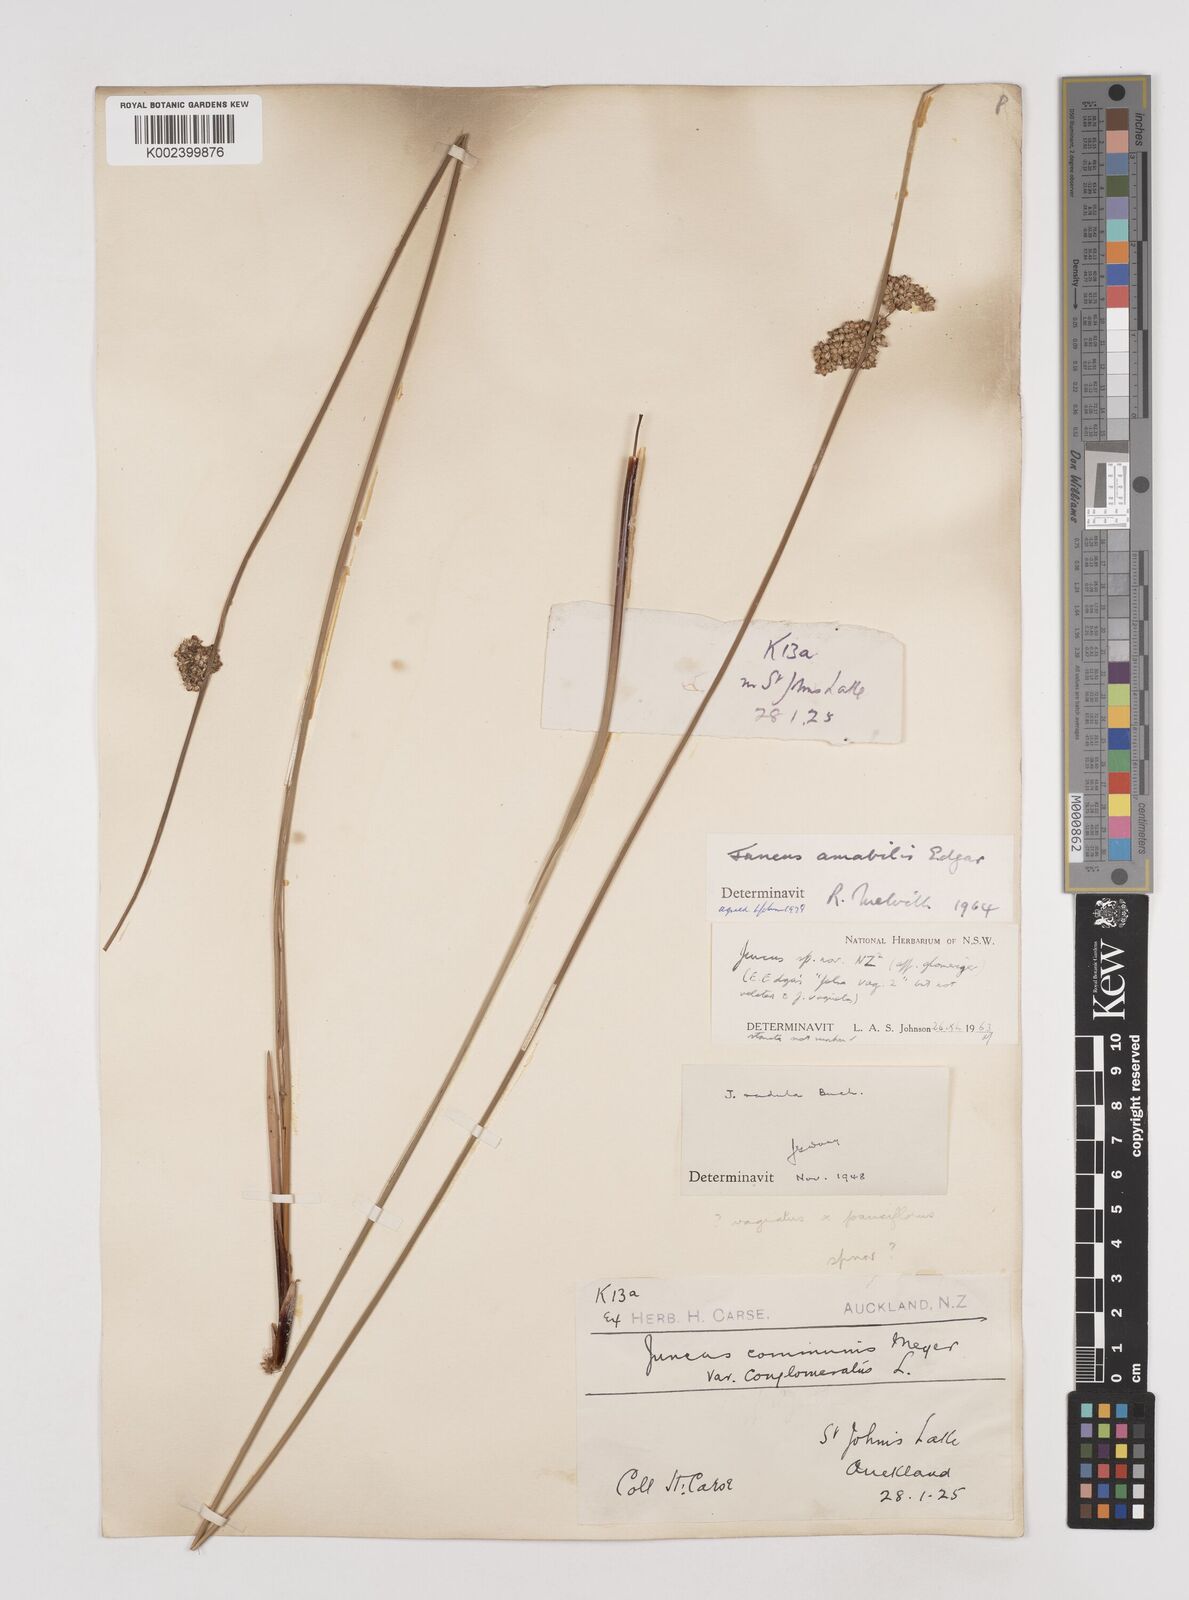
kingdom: Plantae
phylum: Tracheophyta
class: Liliopsida
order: Poales
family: Juncaceae
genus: Juncus
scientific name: Juncus amabilis
